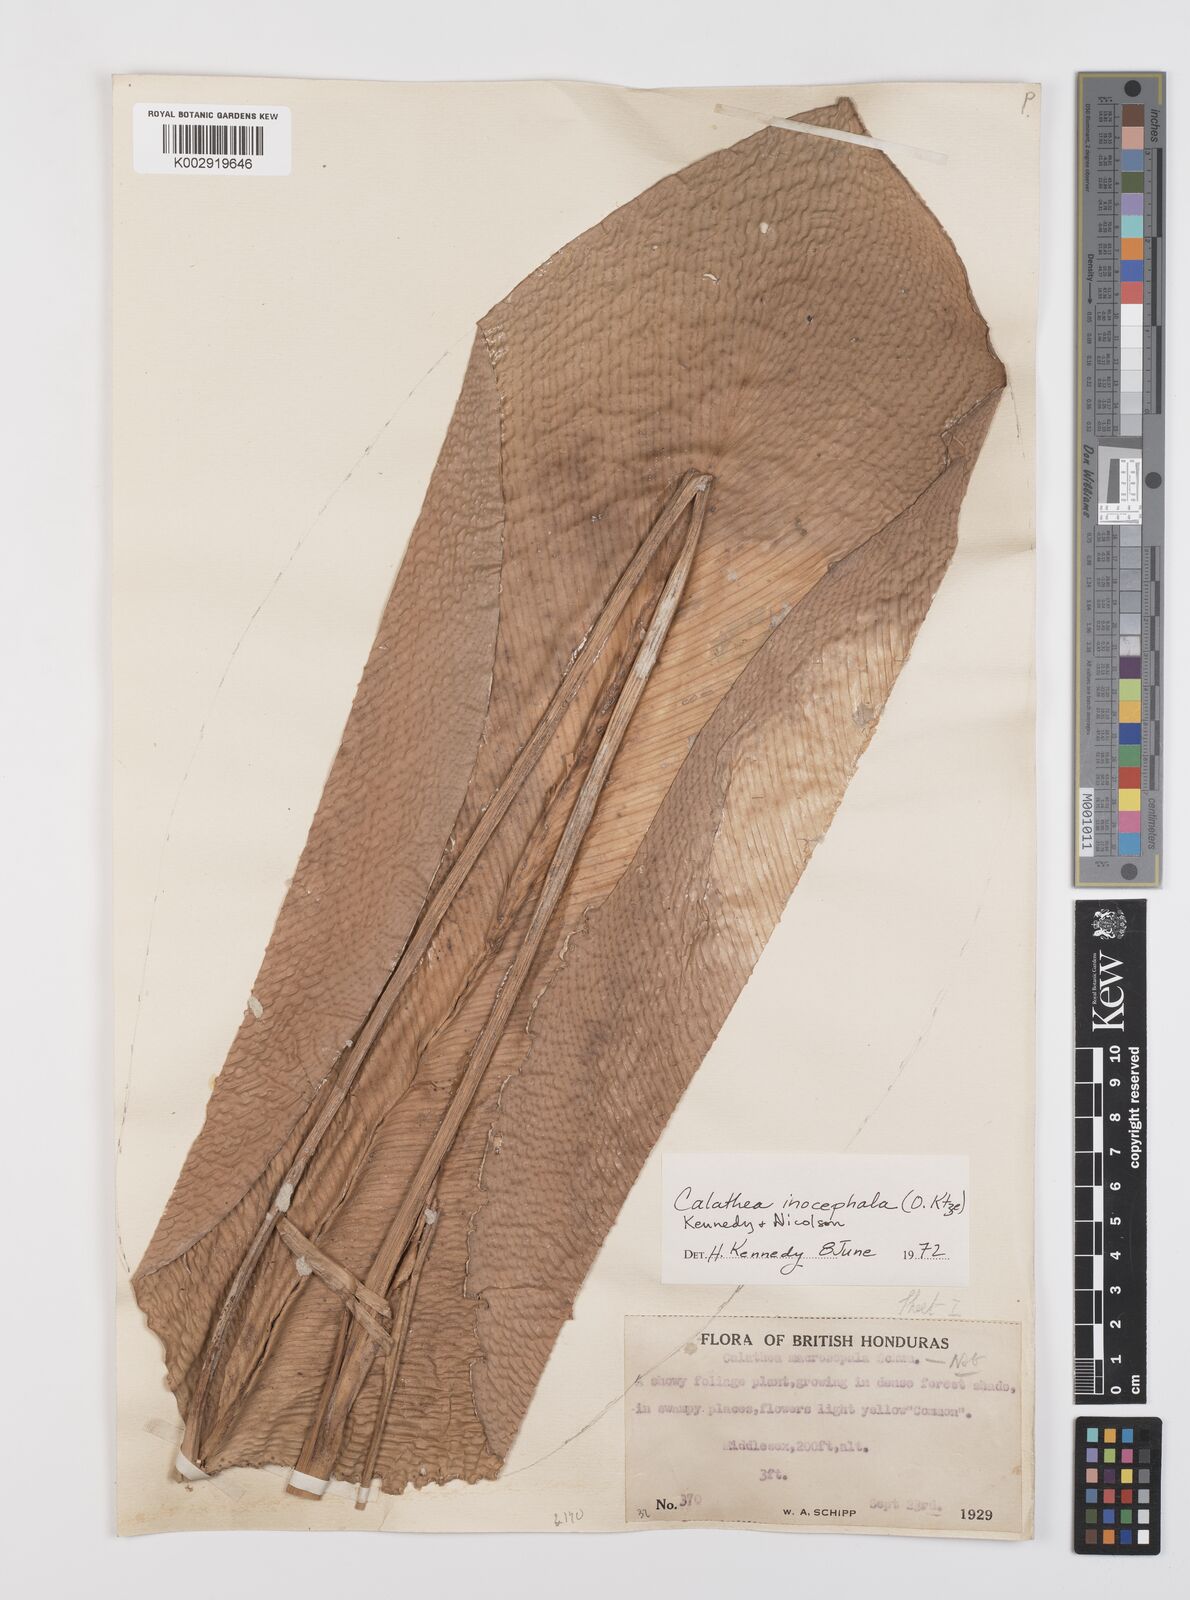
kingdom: Plantae
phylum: Tracheophyta
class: Liliopsida
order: Zingiberales
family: Marantaceae
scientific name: Marantaceae
